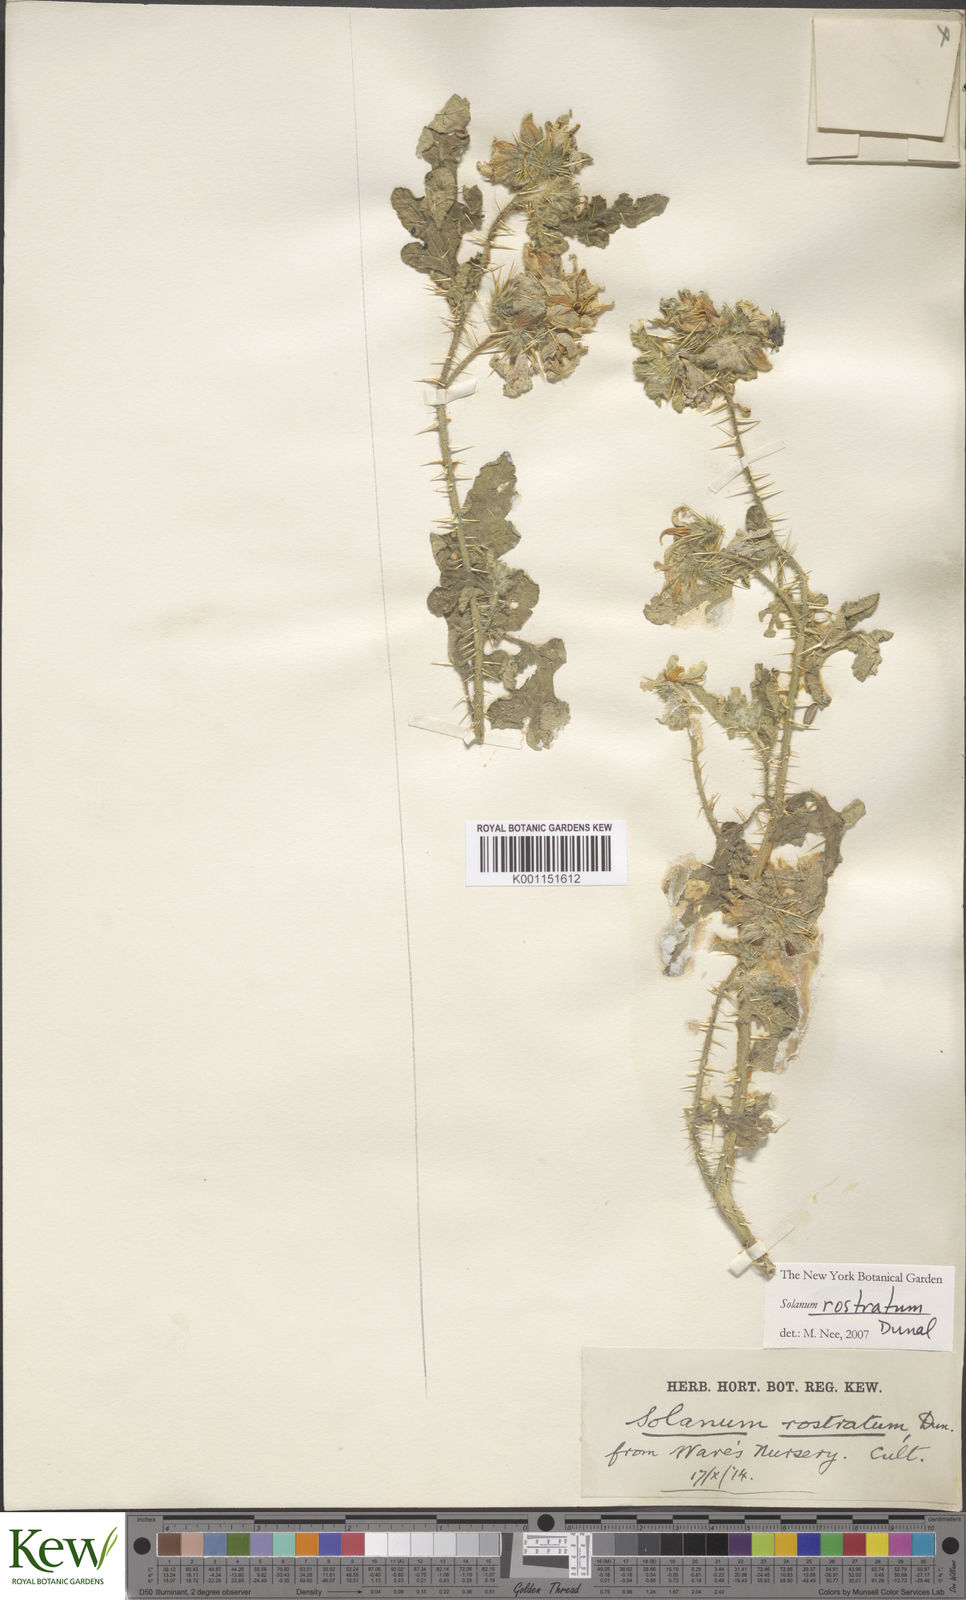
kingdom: Plantae
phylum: Tracheophyta
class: Magnoliopsida
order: Solanales
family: Solanaceae
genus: Solanum
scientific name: Solanum angustifolium
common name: Buffalobur nightshade
